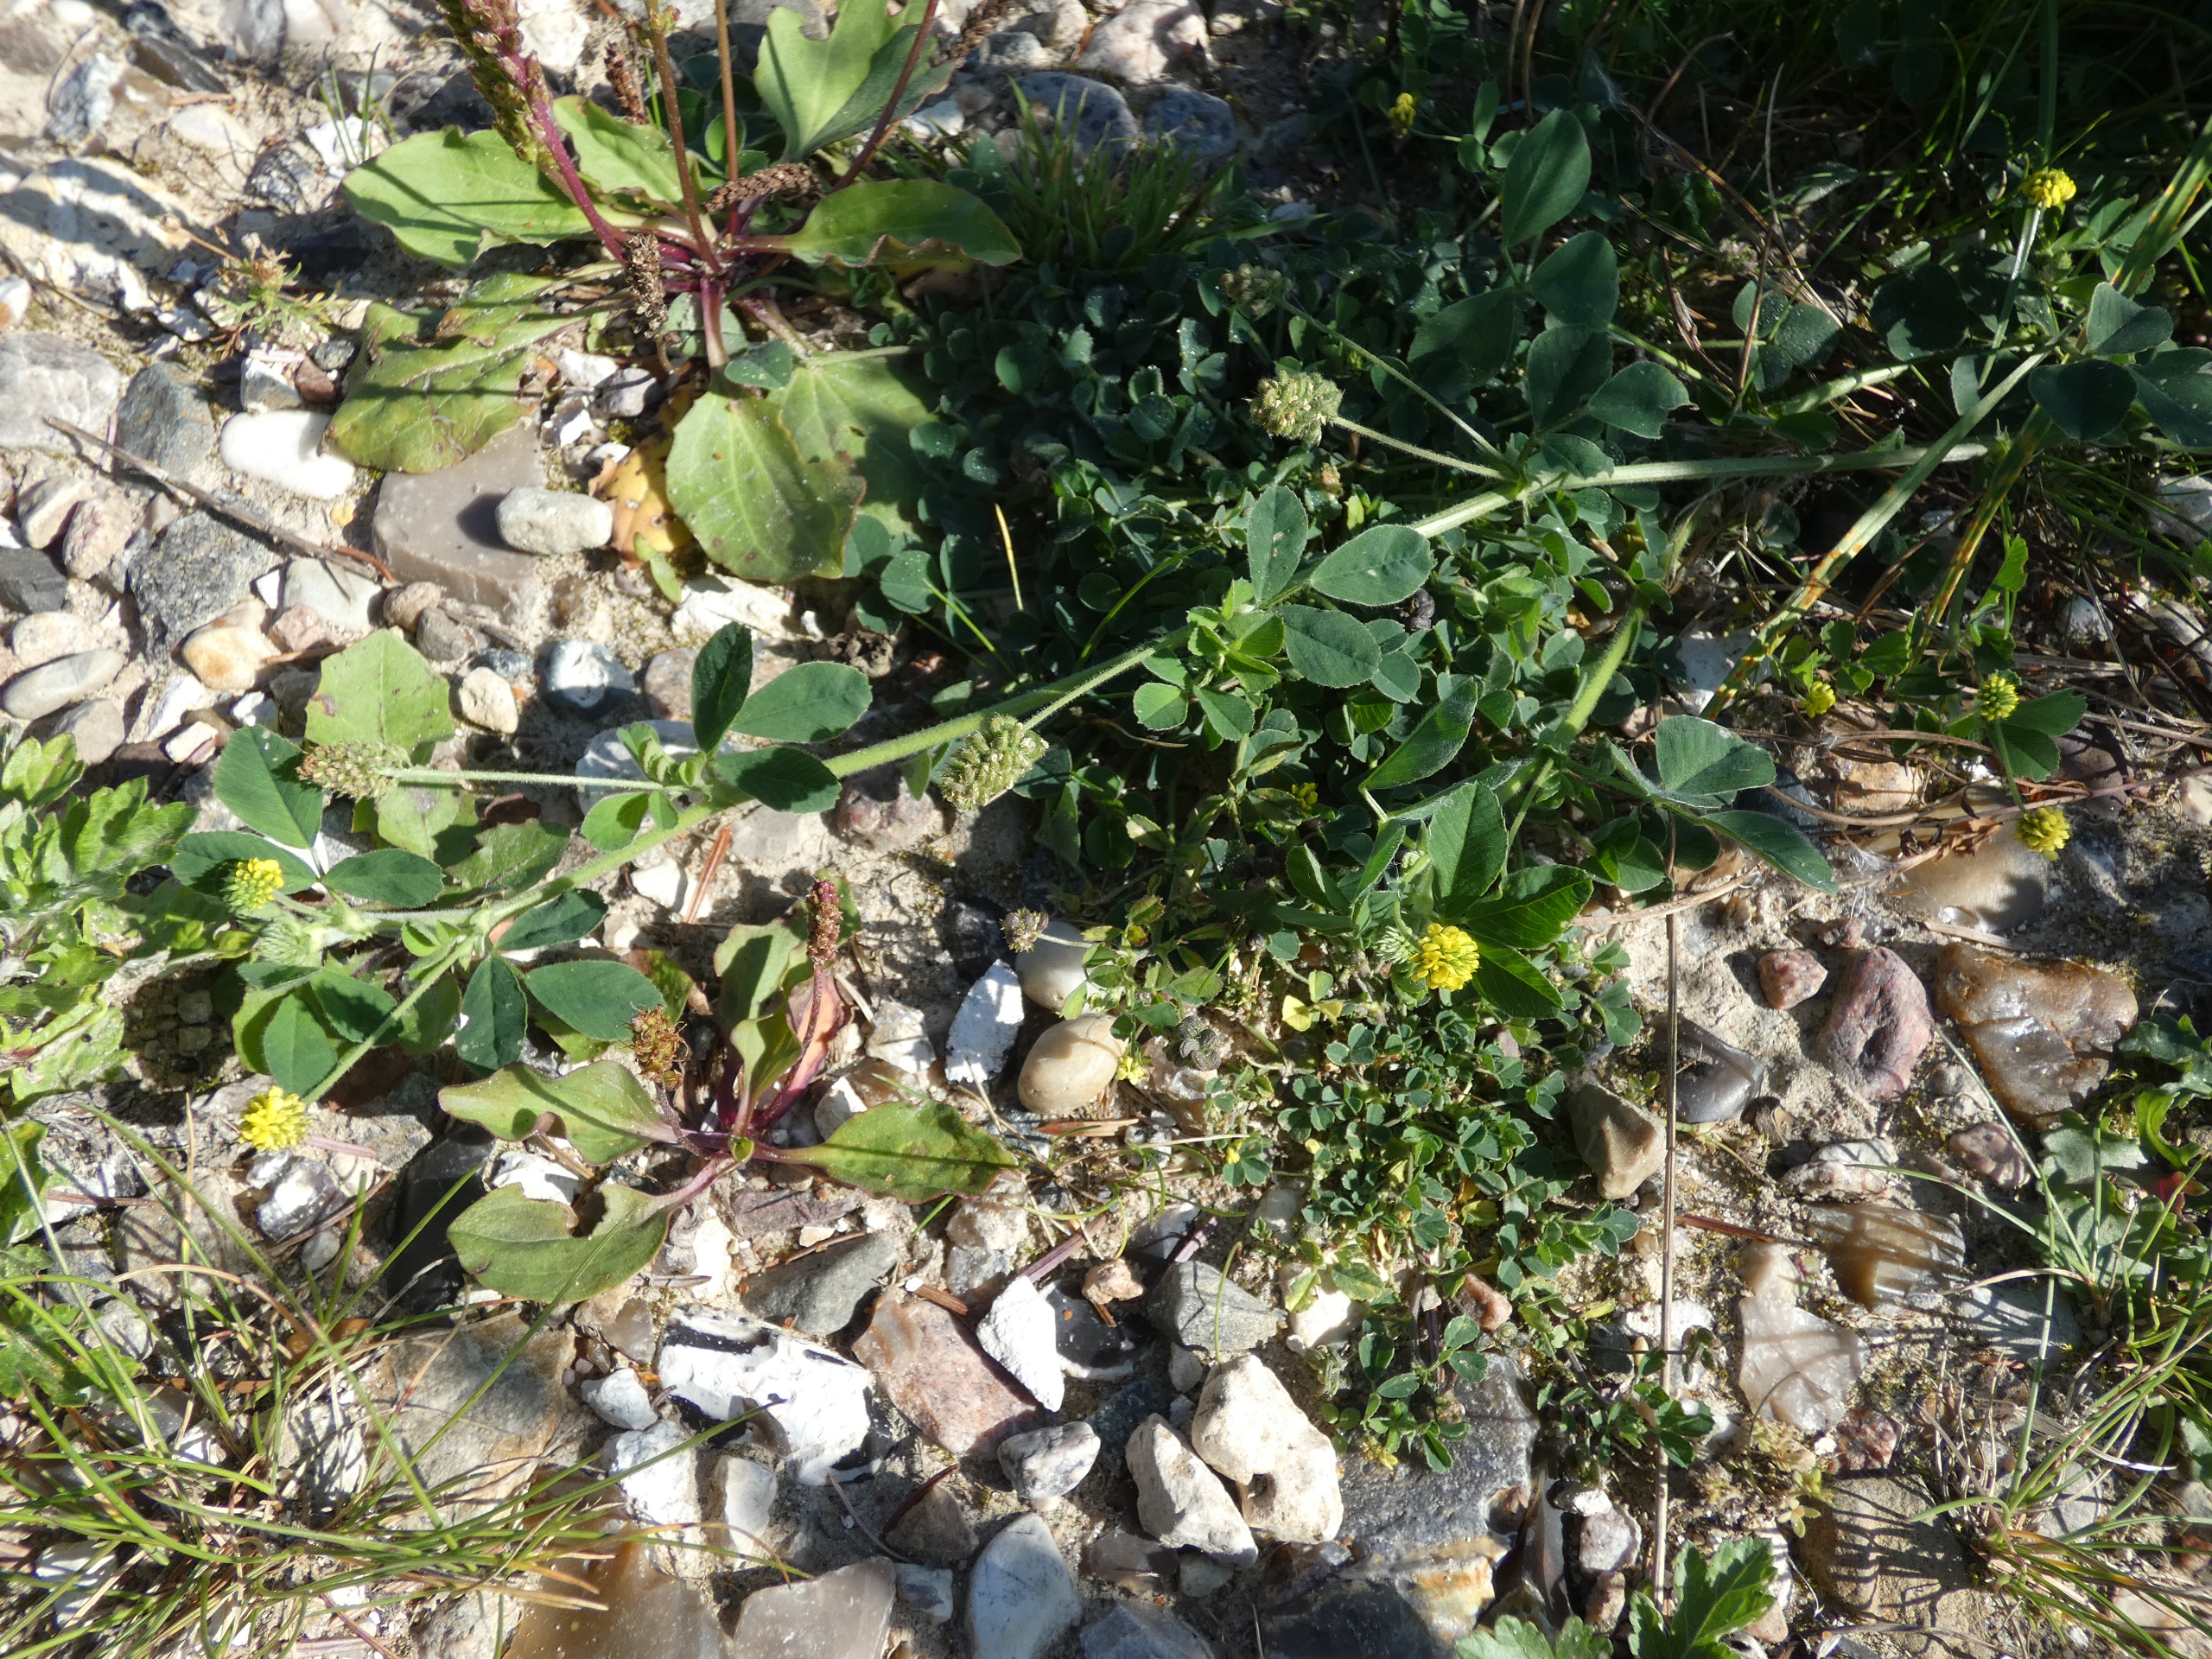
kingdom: Plantae
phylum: Tracheophyta
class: Magnoliopsida
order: Fabales
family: Fabaceae
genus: Medicago
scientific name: Medicago lupulina
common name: Humle-sneglebælg
